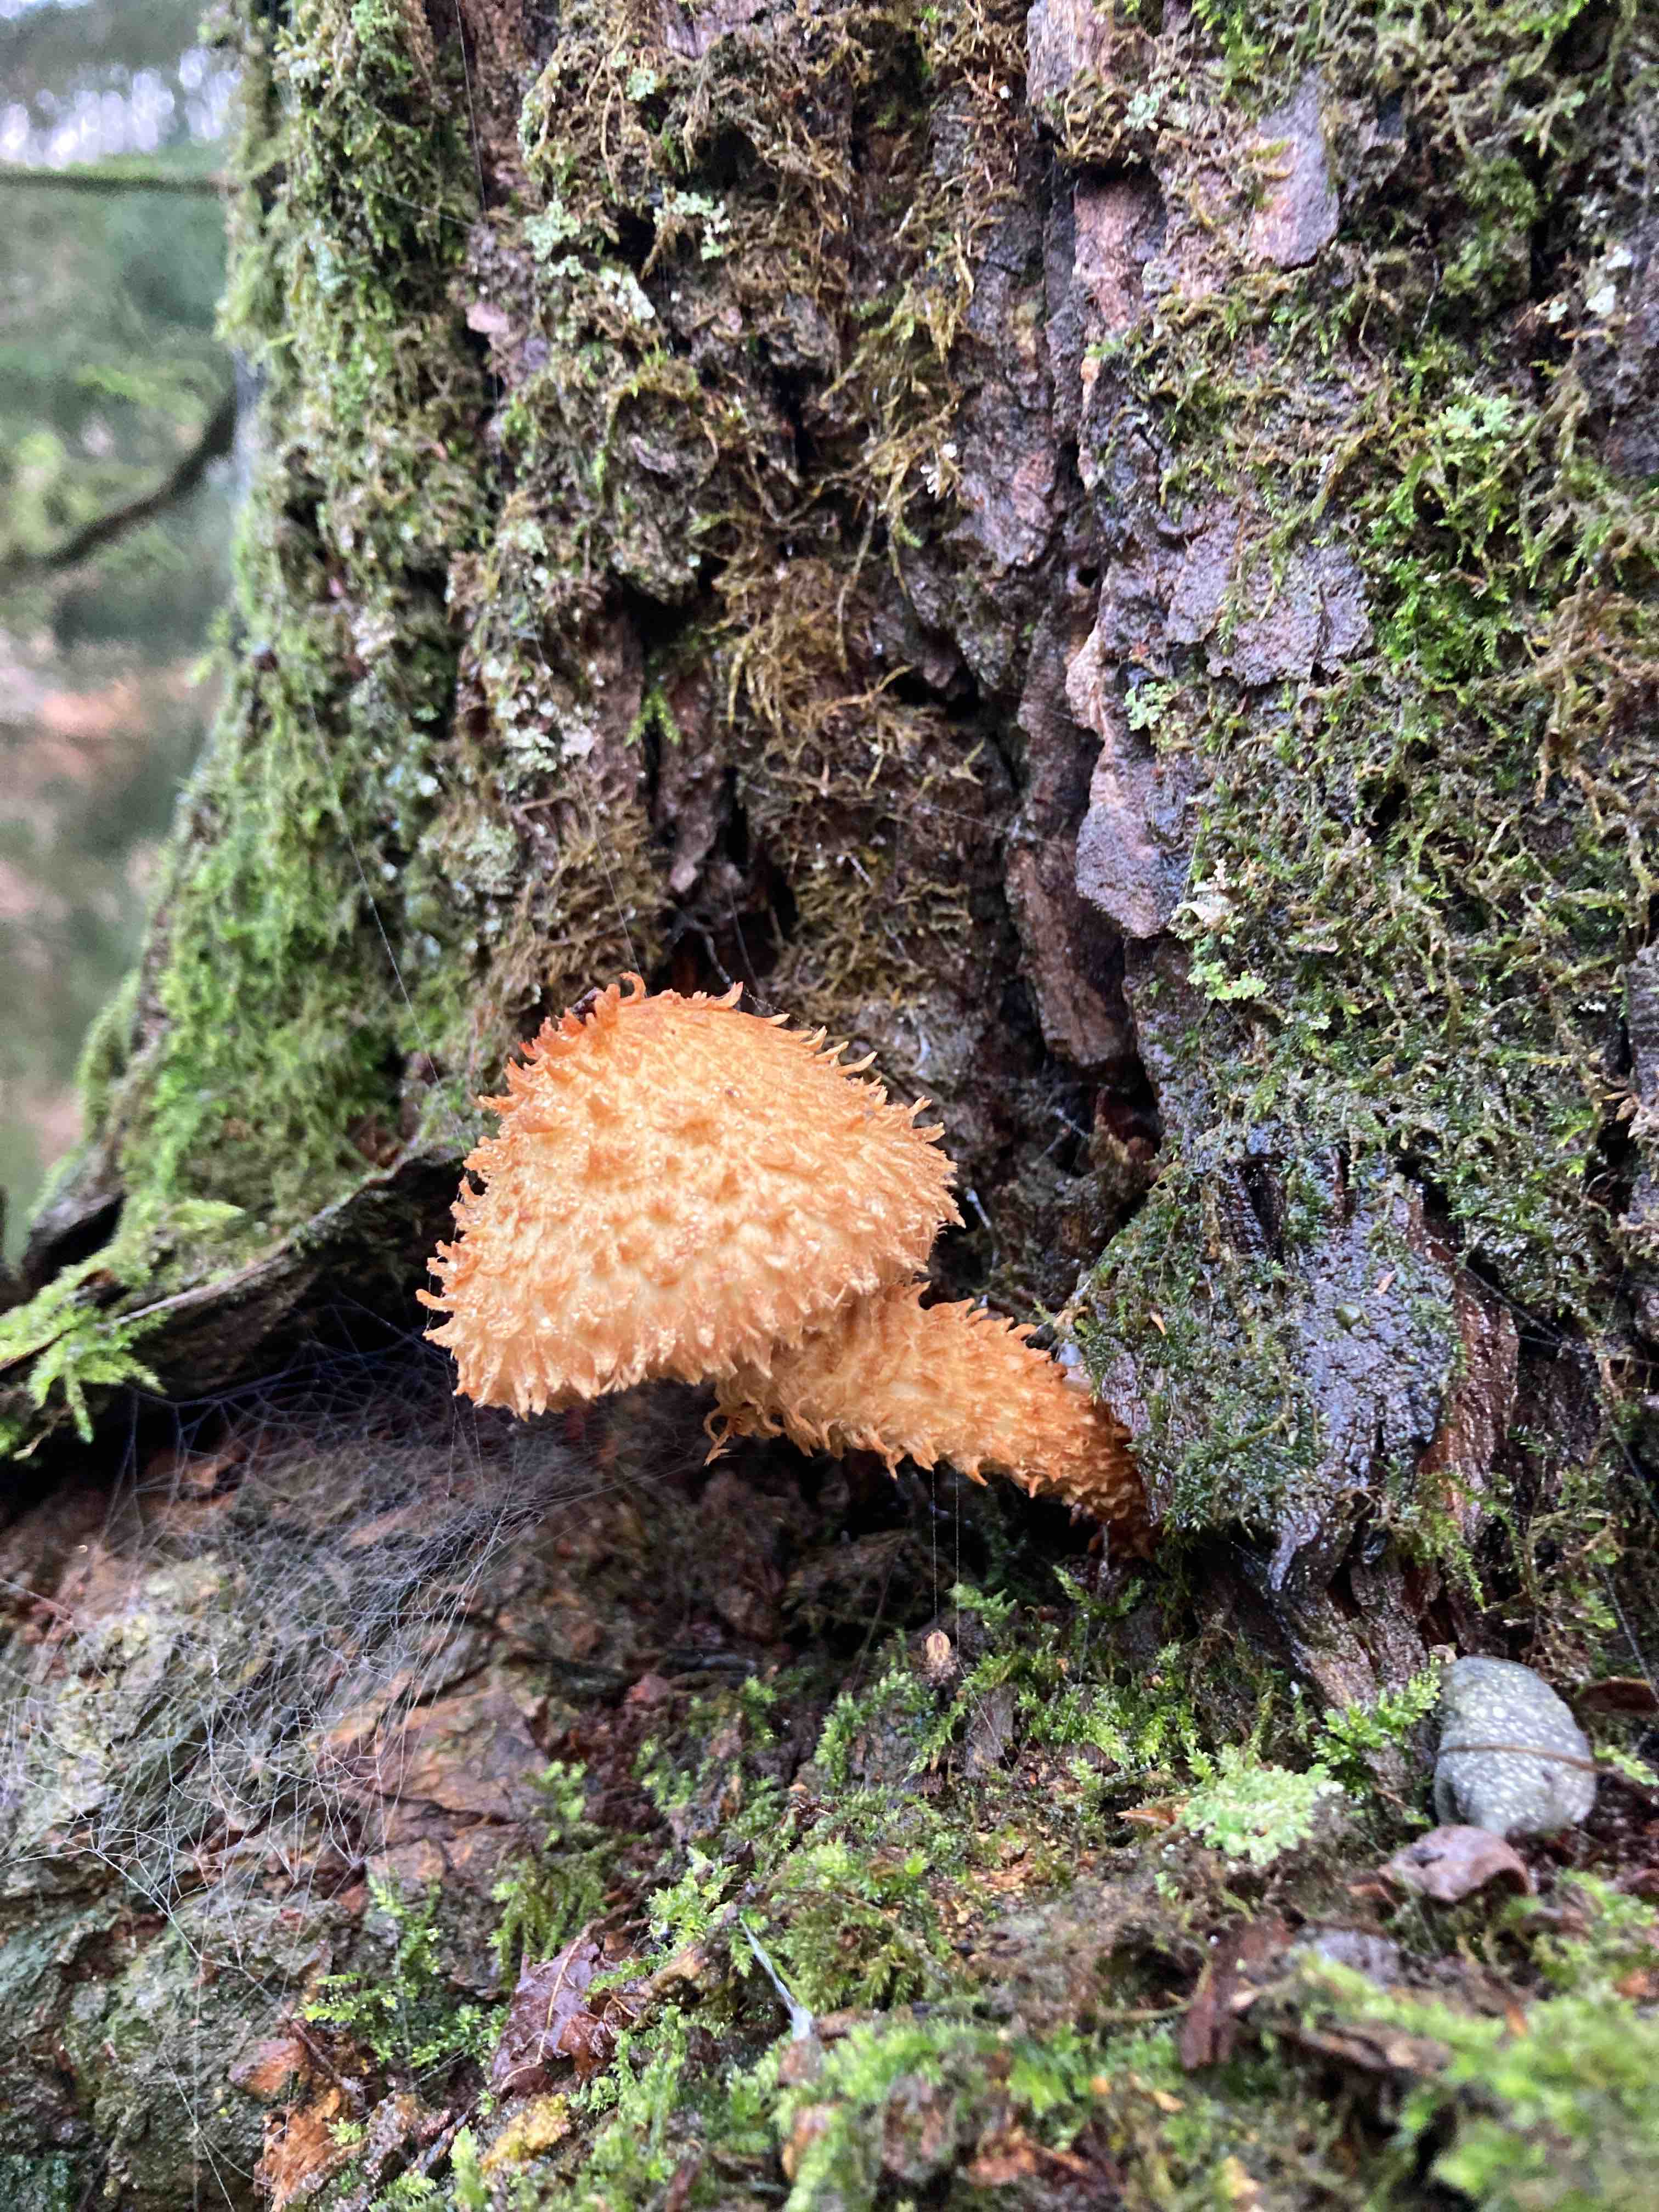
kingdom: Fungi
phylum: Basidiomycota
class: Agaricomycetes
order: Agaricales
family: Strophariaceae
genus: Pholiota
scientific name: Pholiota flammans
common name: flamme-skælhat
